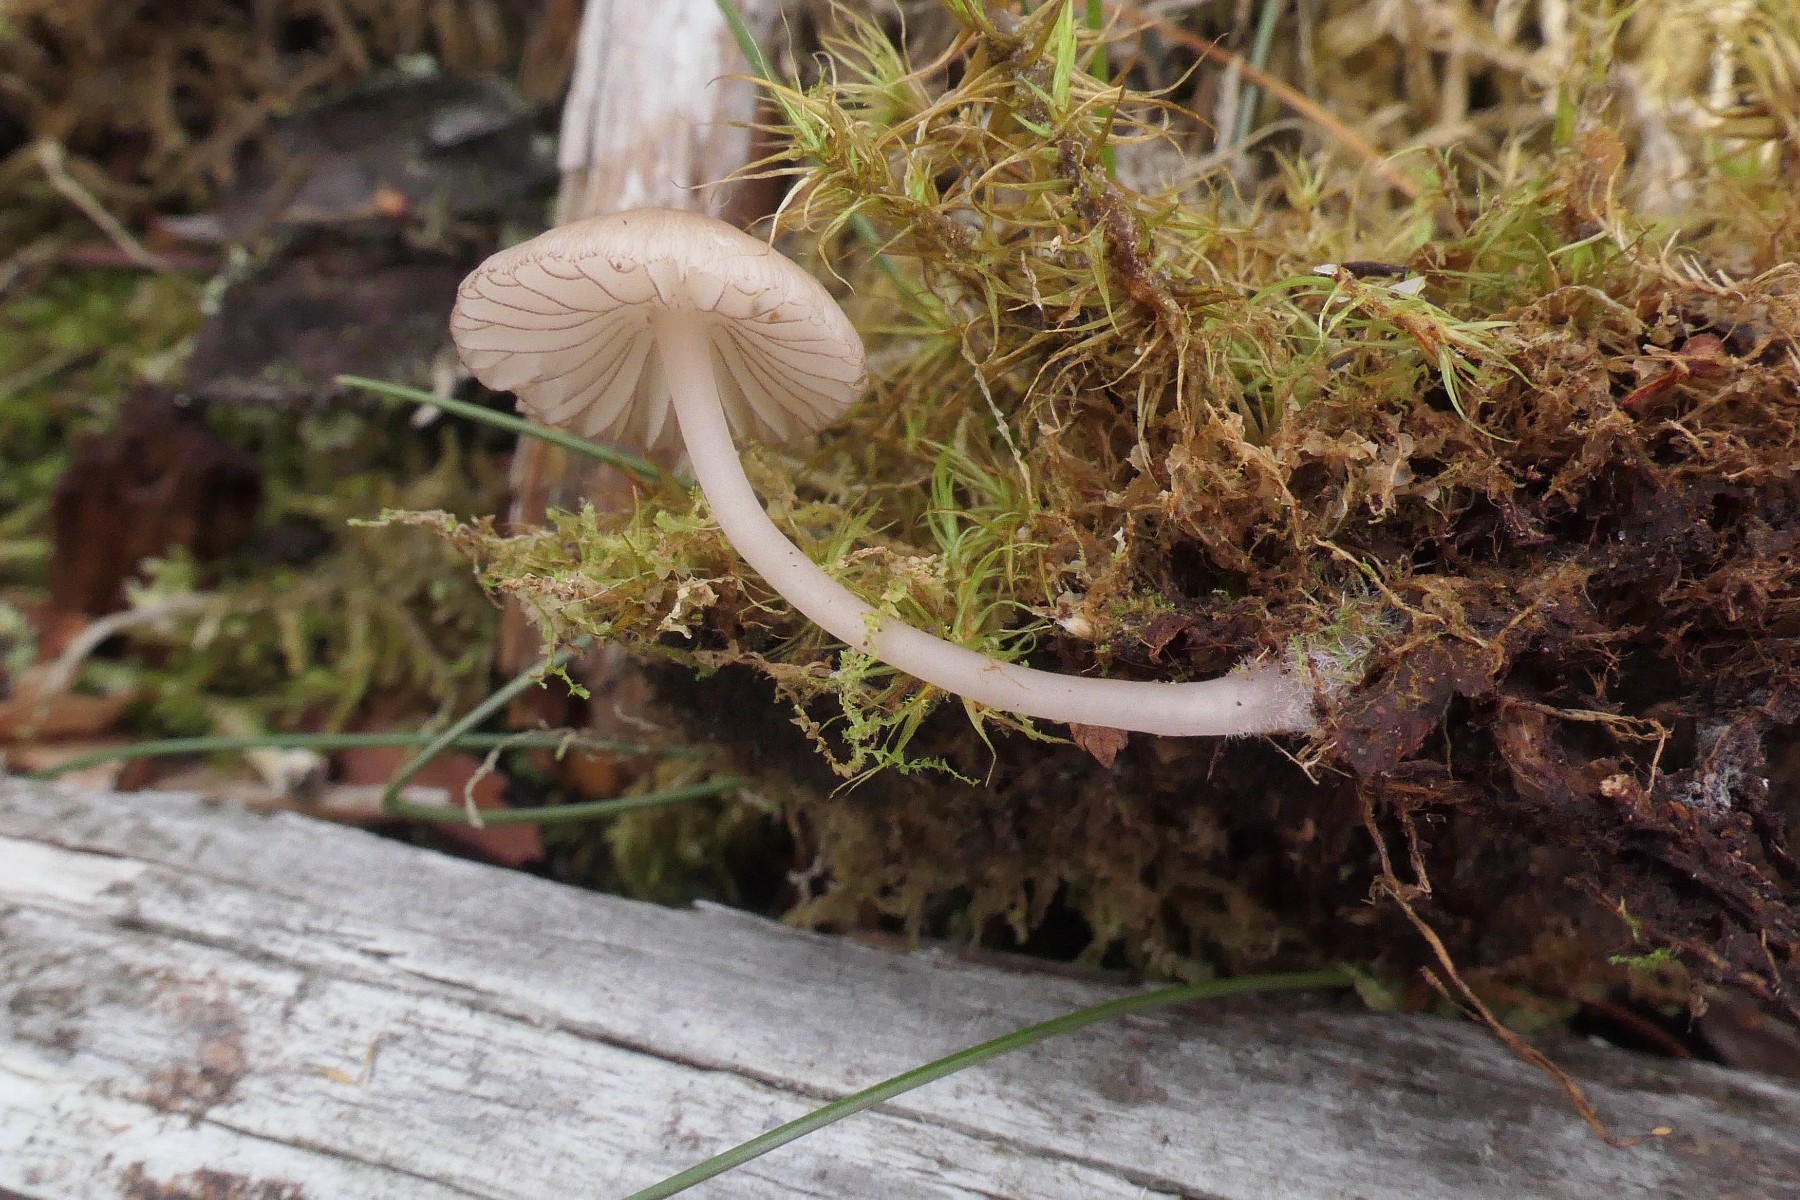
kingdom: Fungi
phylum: Basidiomycota
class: Agaricomycetes
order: Agaricales
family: Mycenaceae
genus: Mycena
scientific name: Mycena rubromarginata
